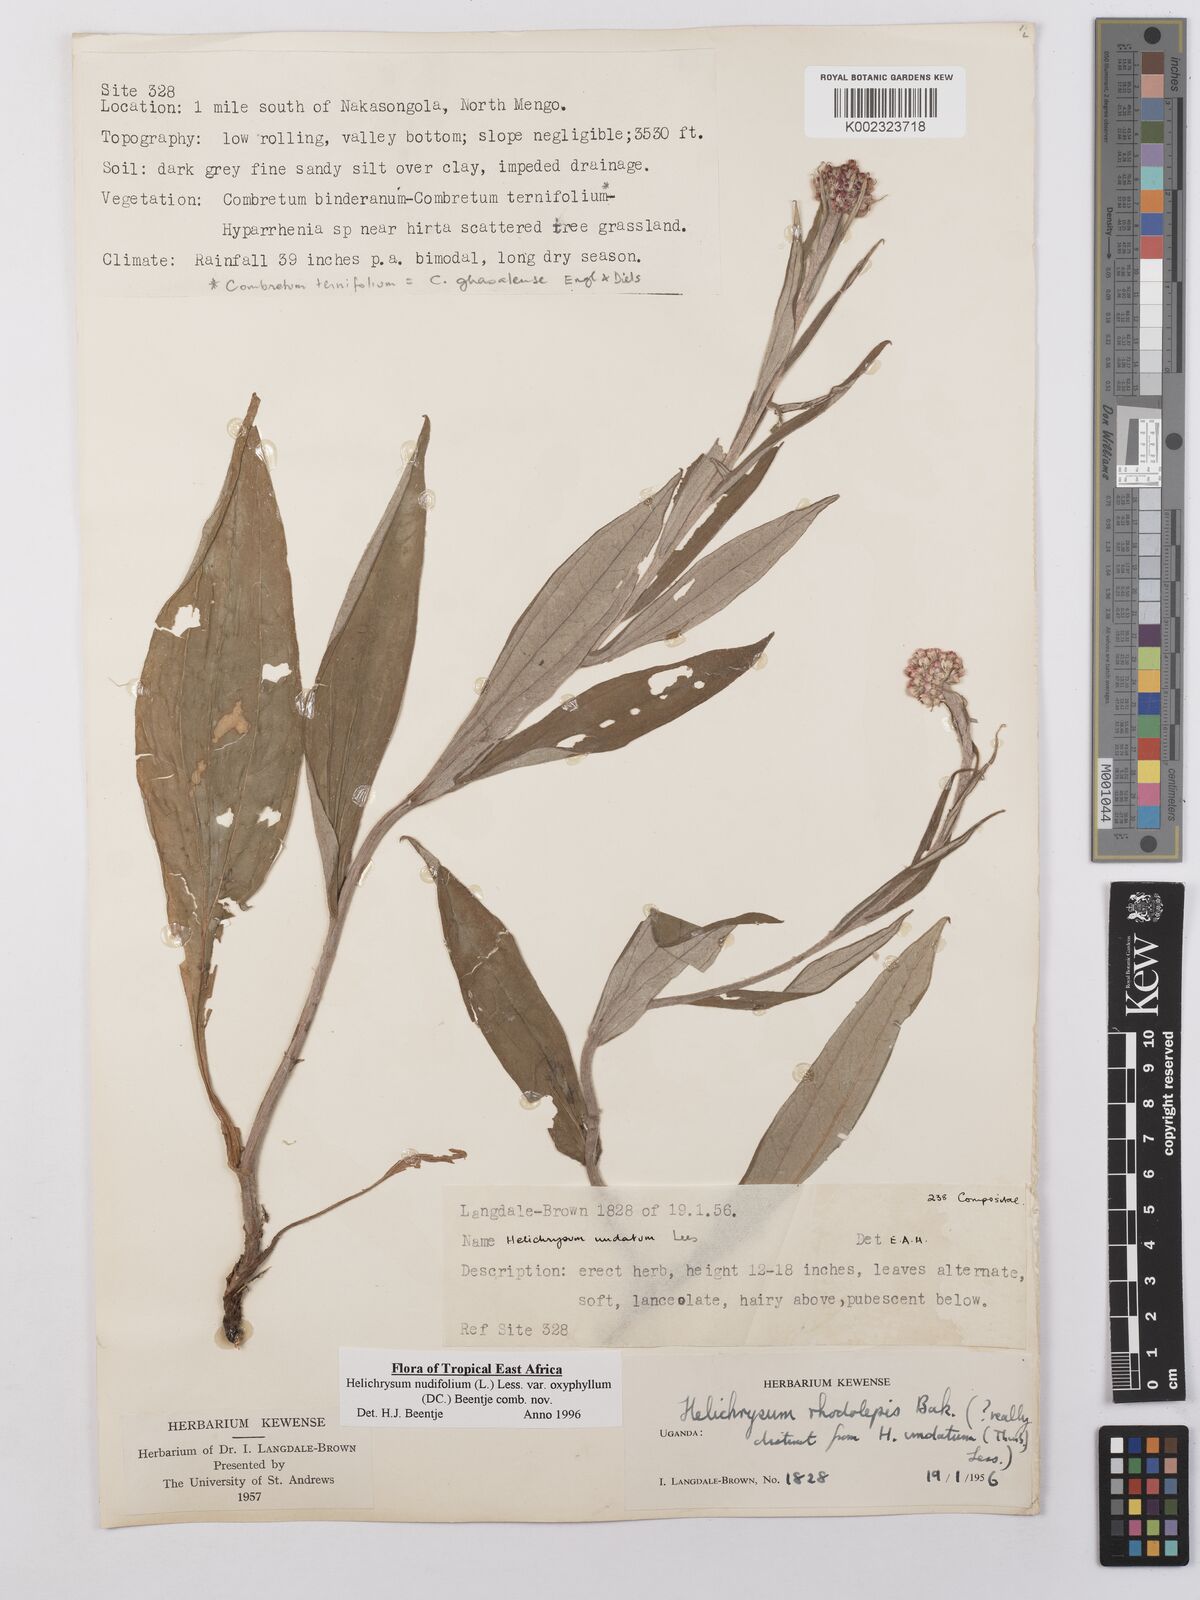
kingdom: Plantae
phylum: Tracheophyta
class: Magnoliopsida
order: Asterales
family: Asteraceae
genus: Helichrysum
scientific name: Helichrysum nudifolium
